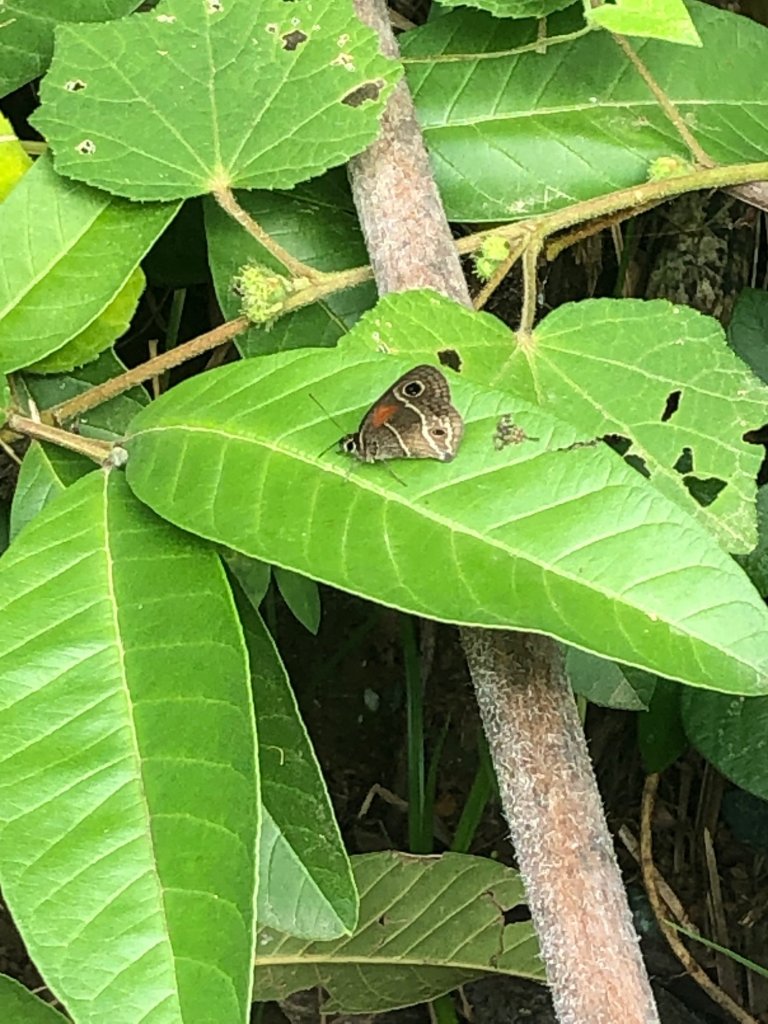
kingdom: Animalia
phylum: Arthropoda
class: Insecta
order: Lepidoptera
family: Nymphalidae
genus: Calisto
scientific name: Calisto
